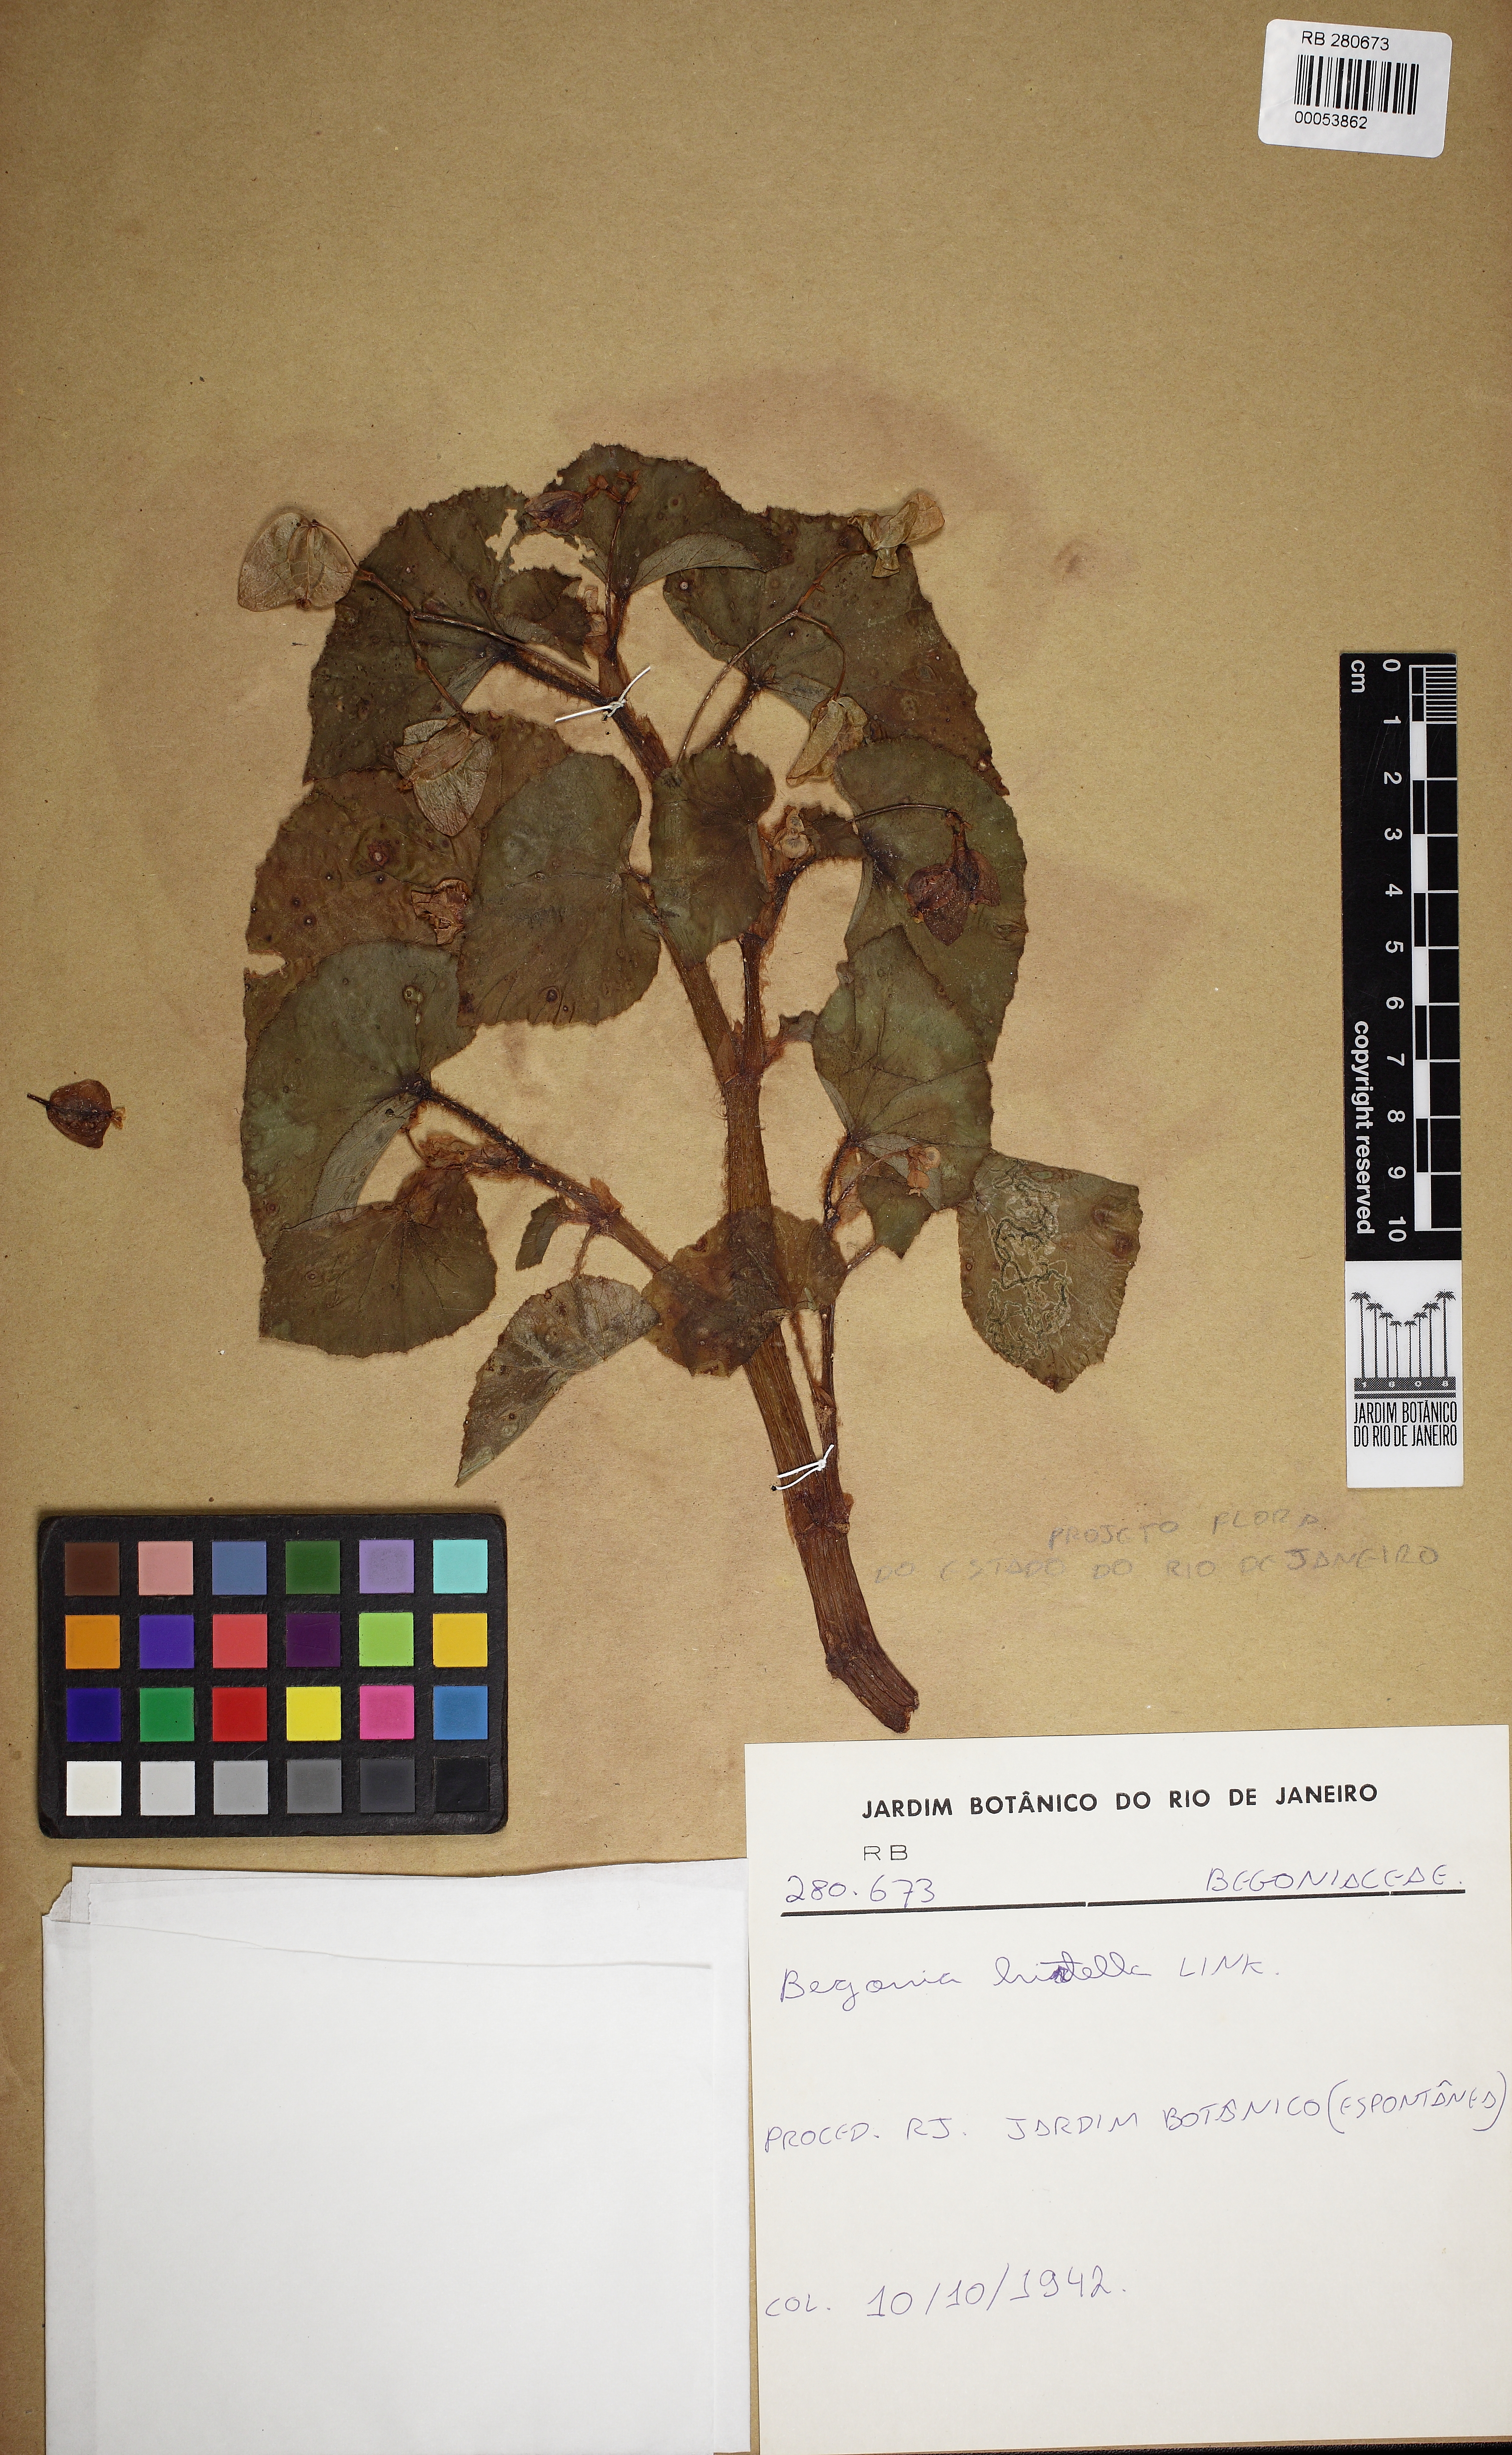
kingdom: Plantae
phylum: Tracheophyta
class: Magnoliopsida
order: Cucurbitales
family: Begoniaceae
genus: Begonia
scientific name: Begonia hirtella
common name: Brazilian begonia
